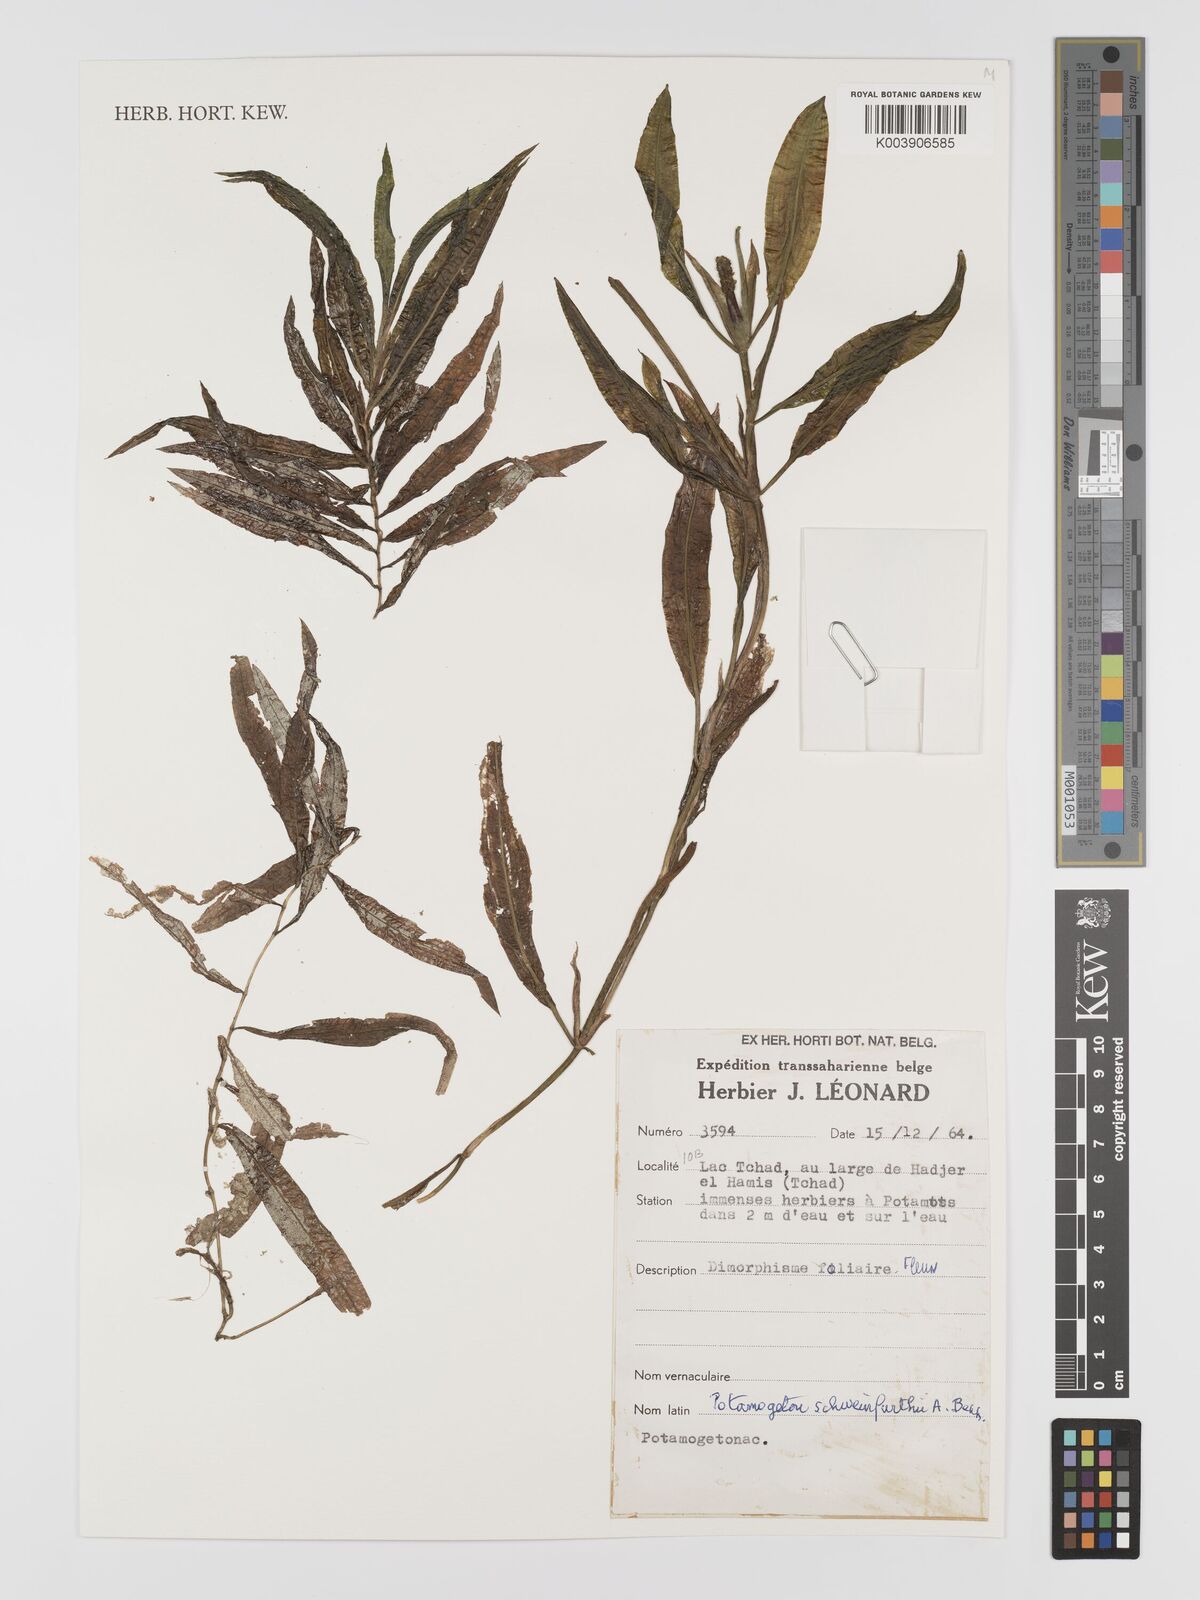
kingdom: Plantae
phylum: Tracheophyta
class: Liliopsida
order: Alismatales
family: Potamogetonaceae
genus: Potamogeton
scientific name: Potamogeton schweinfurthii
